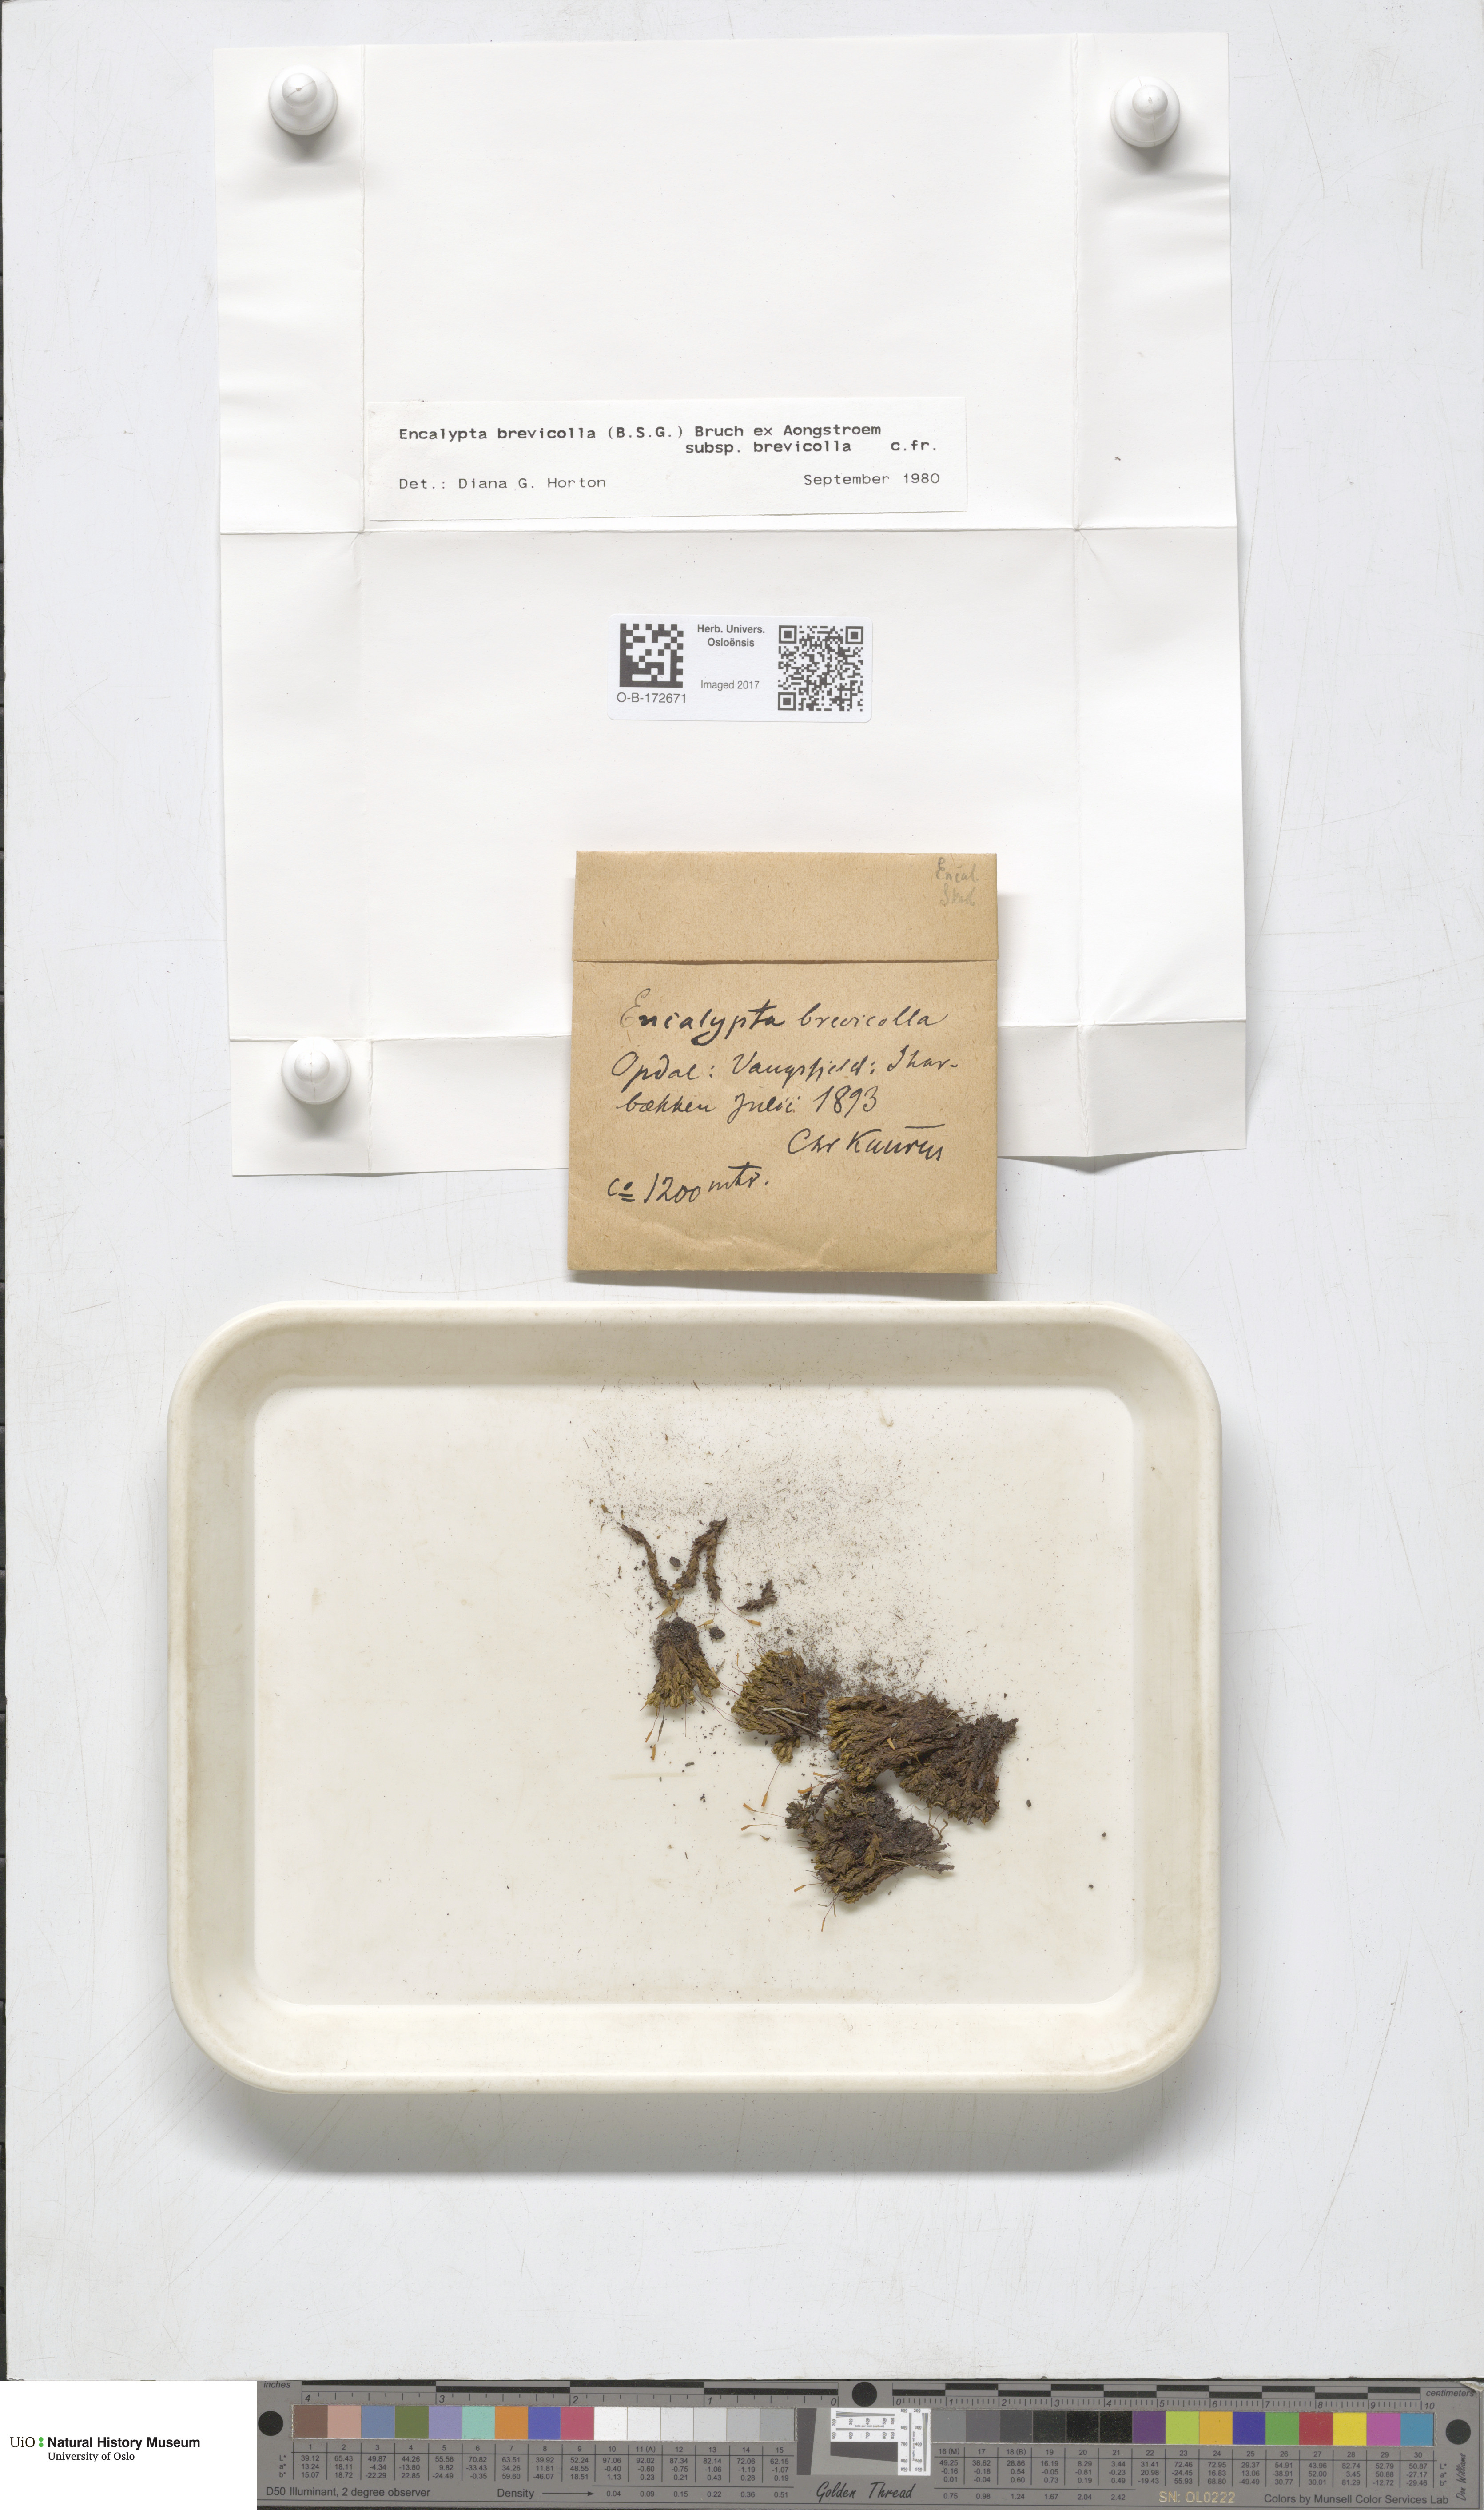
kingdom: Plantae
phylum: Bryophyta
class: Bryopsida
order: Encalyptales
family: Encalyptaceae
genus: Encalypta
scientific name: Encalypta brevicolla
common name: White-mouthed extinguisher-moss
